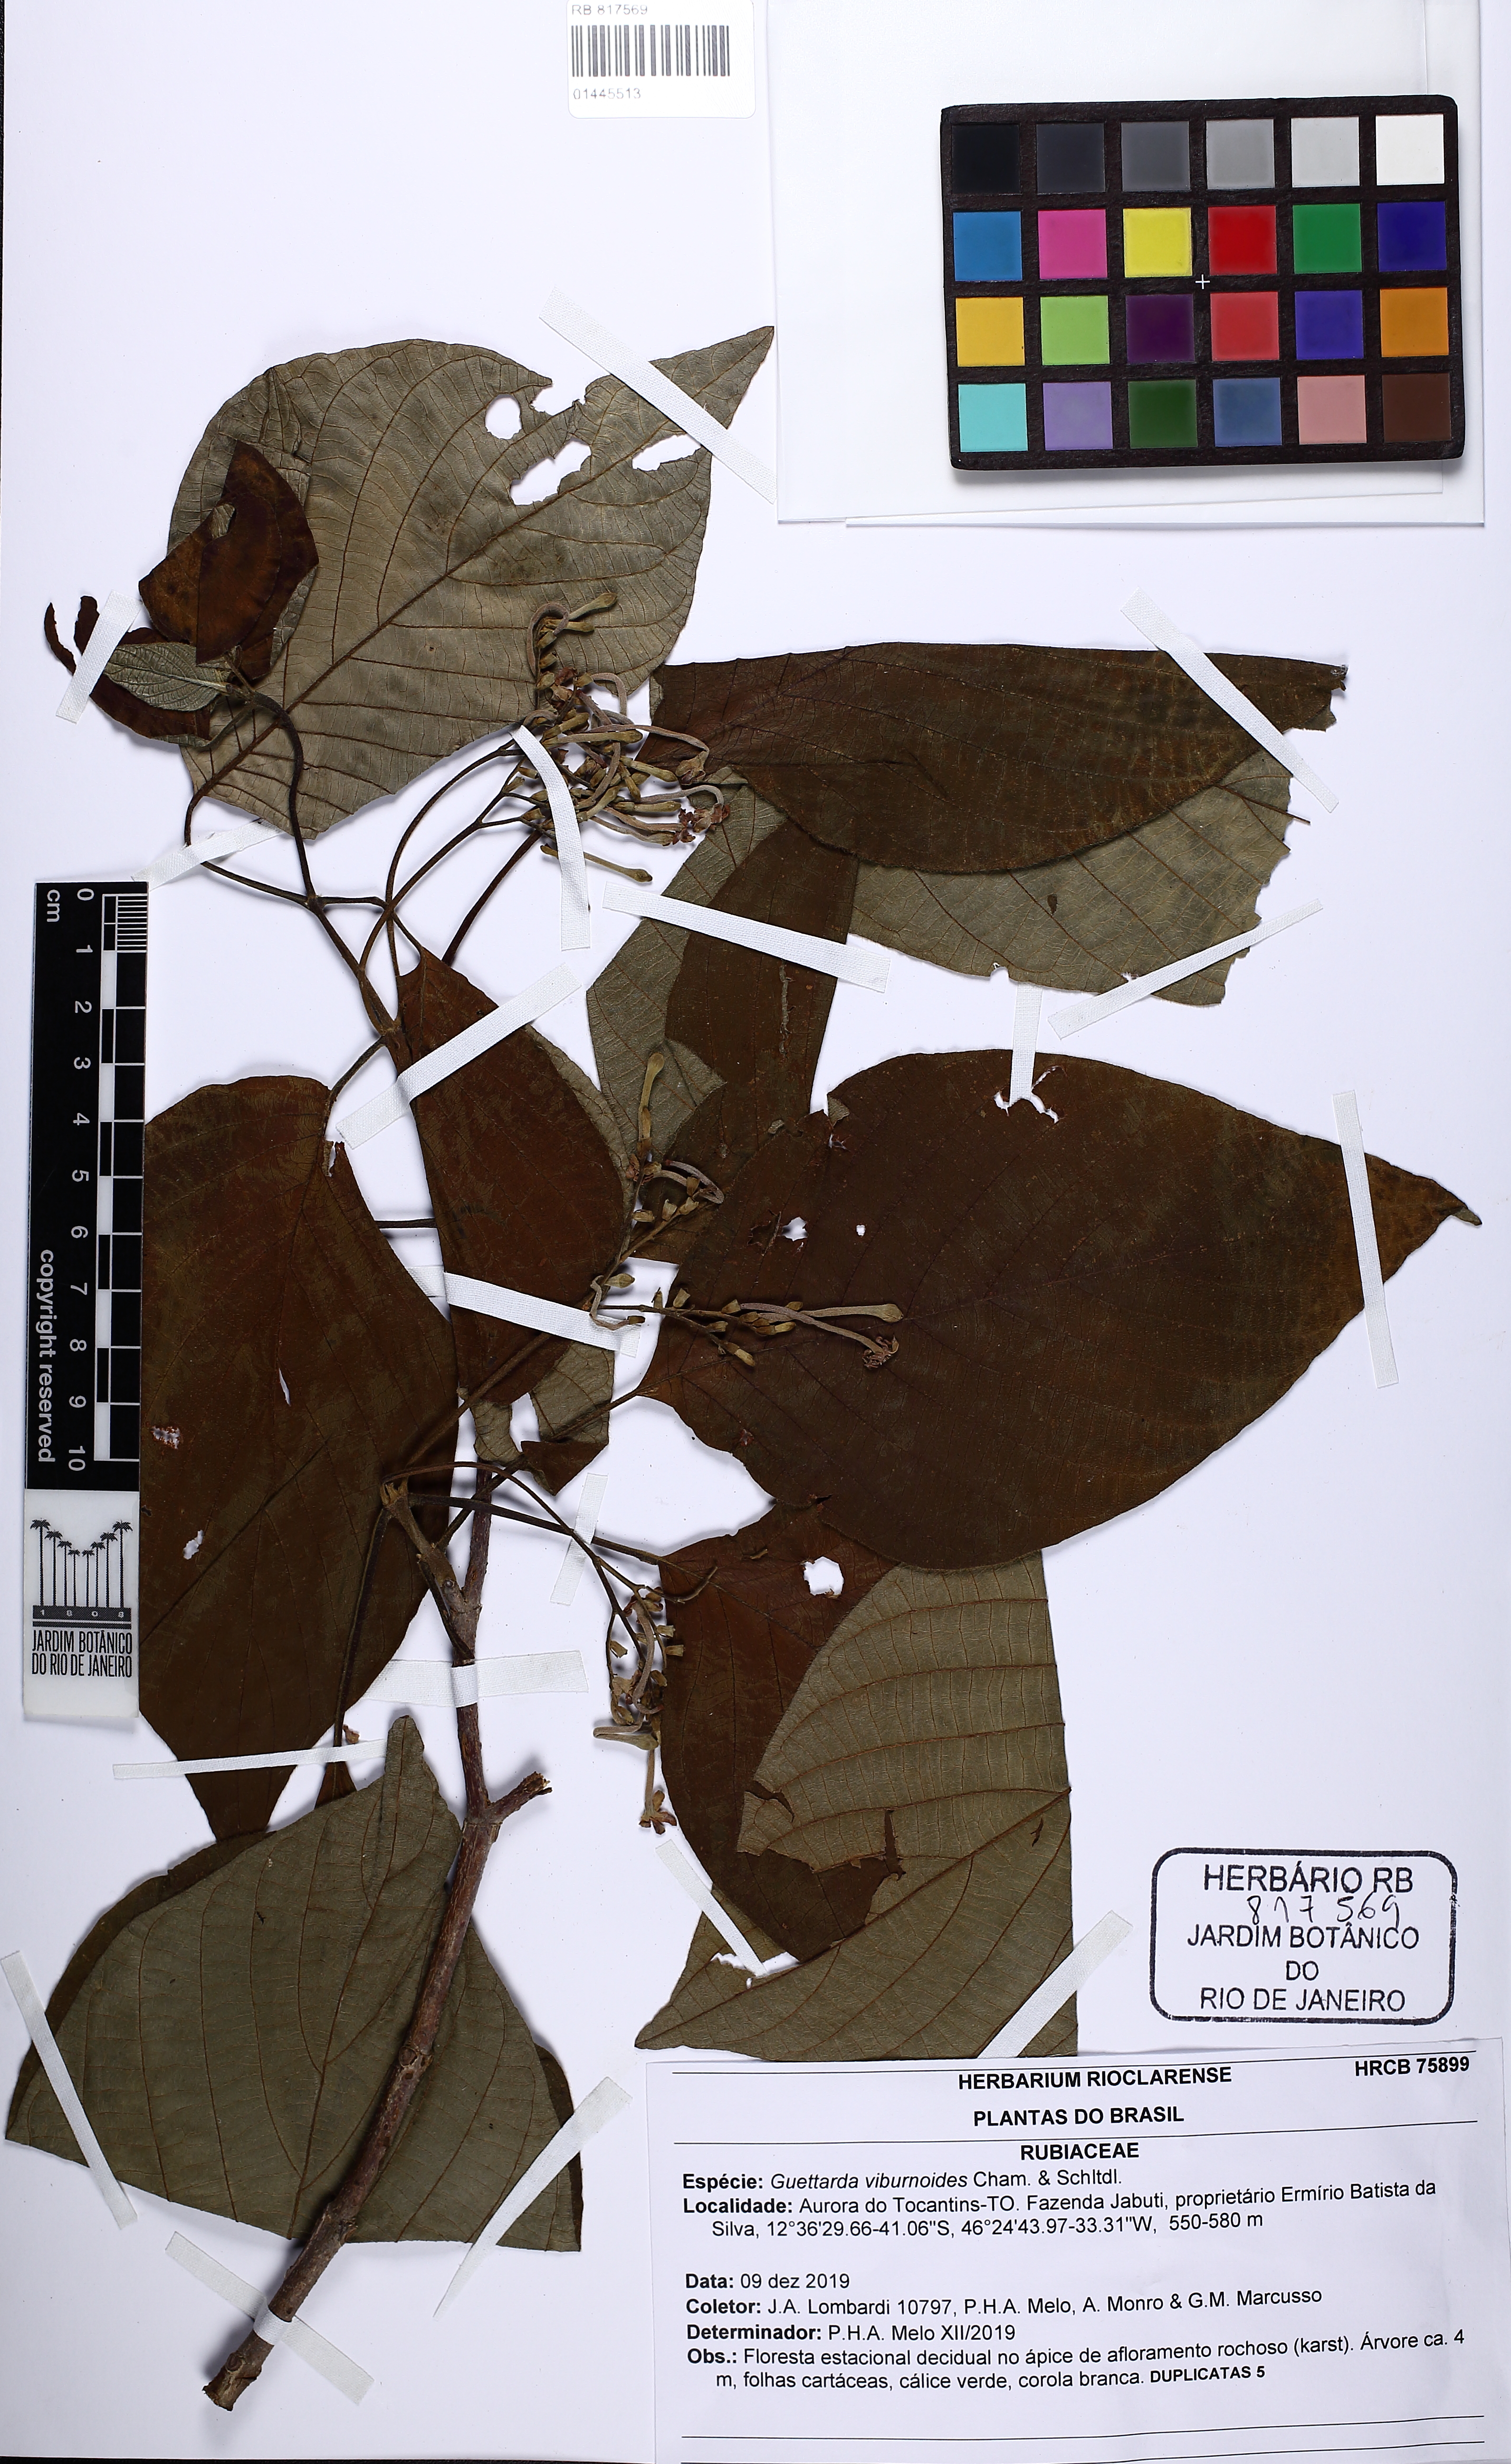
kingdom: Plantae
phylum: Tracheophyta
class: Magnoliopsida
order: Gentianales
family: Rubiaceae
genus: Guettarda
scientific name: Guettarda viburnoides
